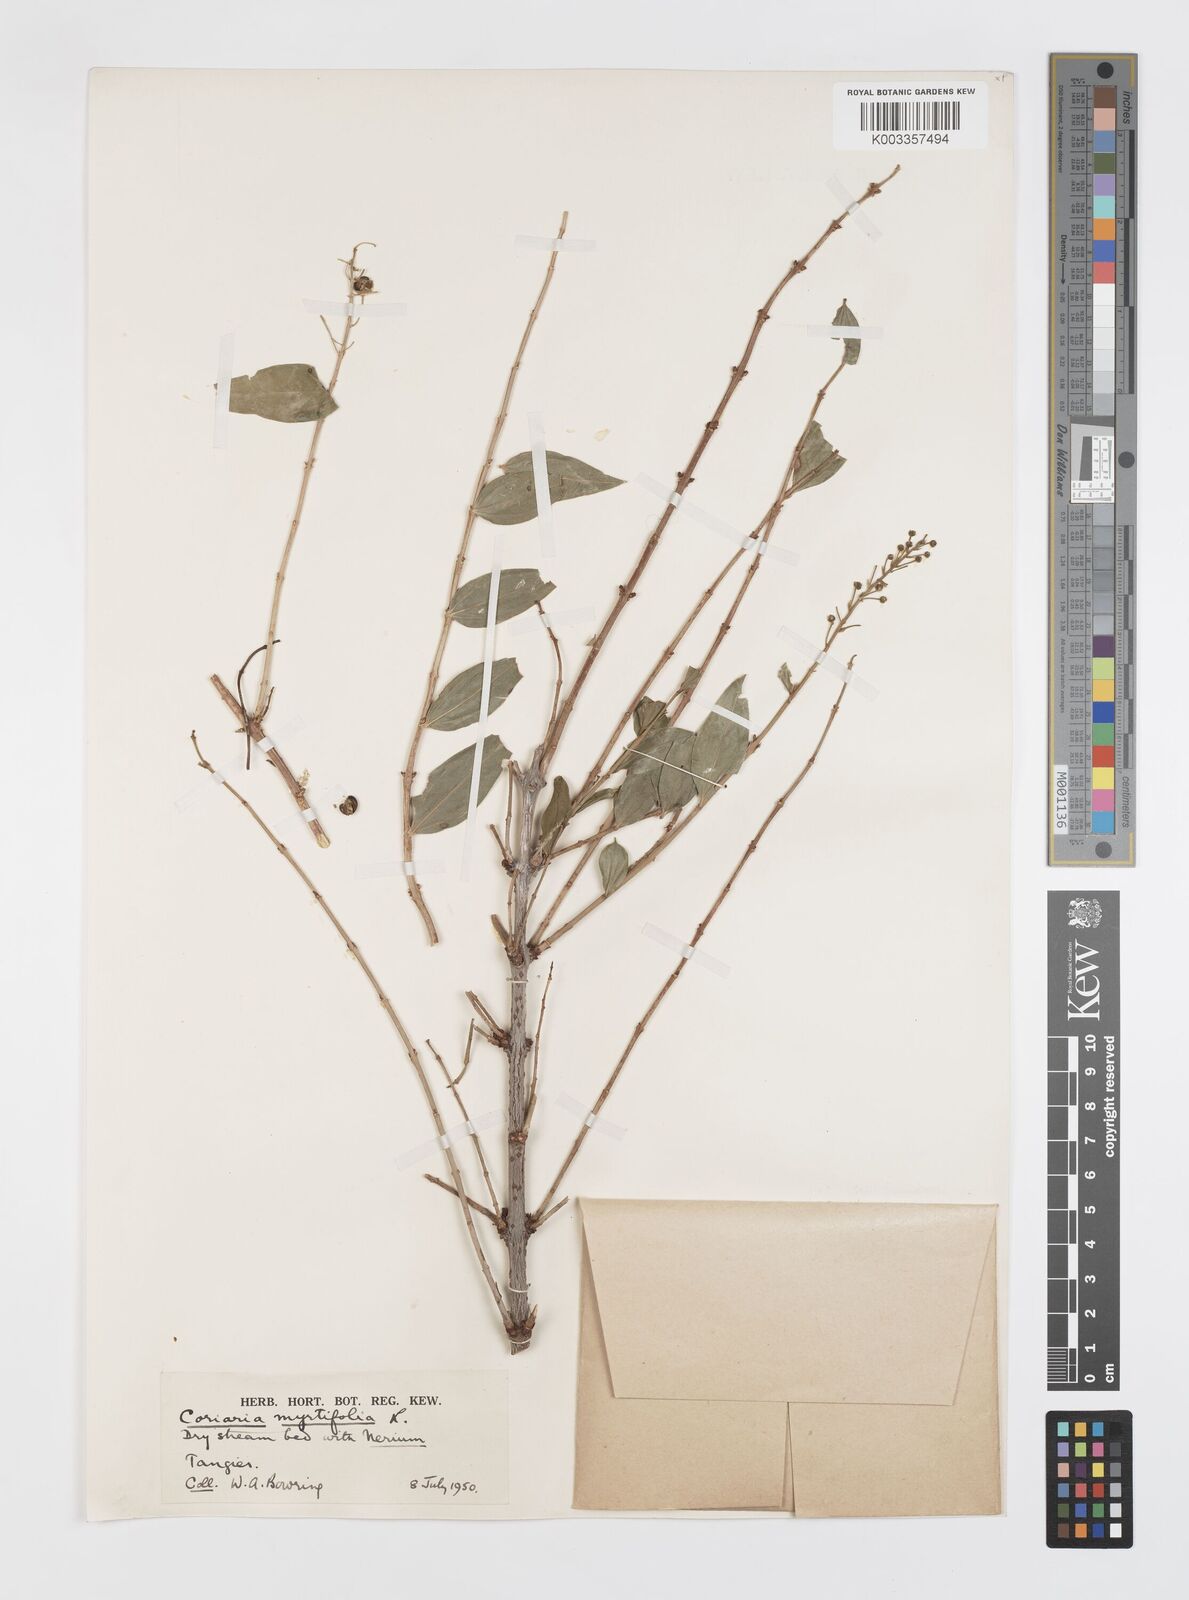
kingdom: Plantae
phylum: Tracheophyta
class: Magnoliopsida
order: Cucurbitales
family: Coriariaceae
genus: Coriaria
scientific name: Coriaria myrtifolia
